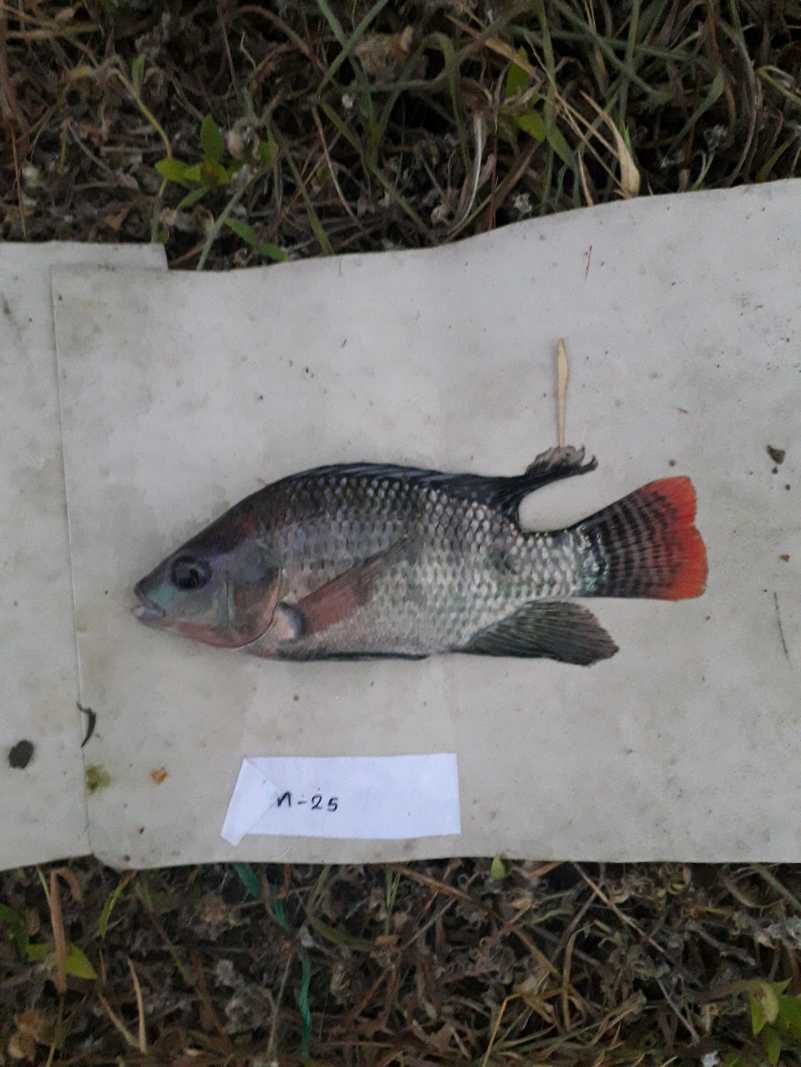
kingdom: Animalia
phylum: Chordata
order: Perciformes
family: Cichlidae
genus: Oreochromis
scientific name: Oreochromis niloticus
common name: Nile tilapia
